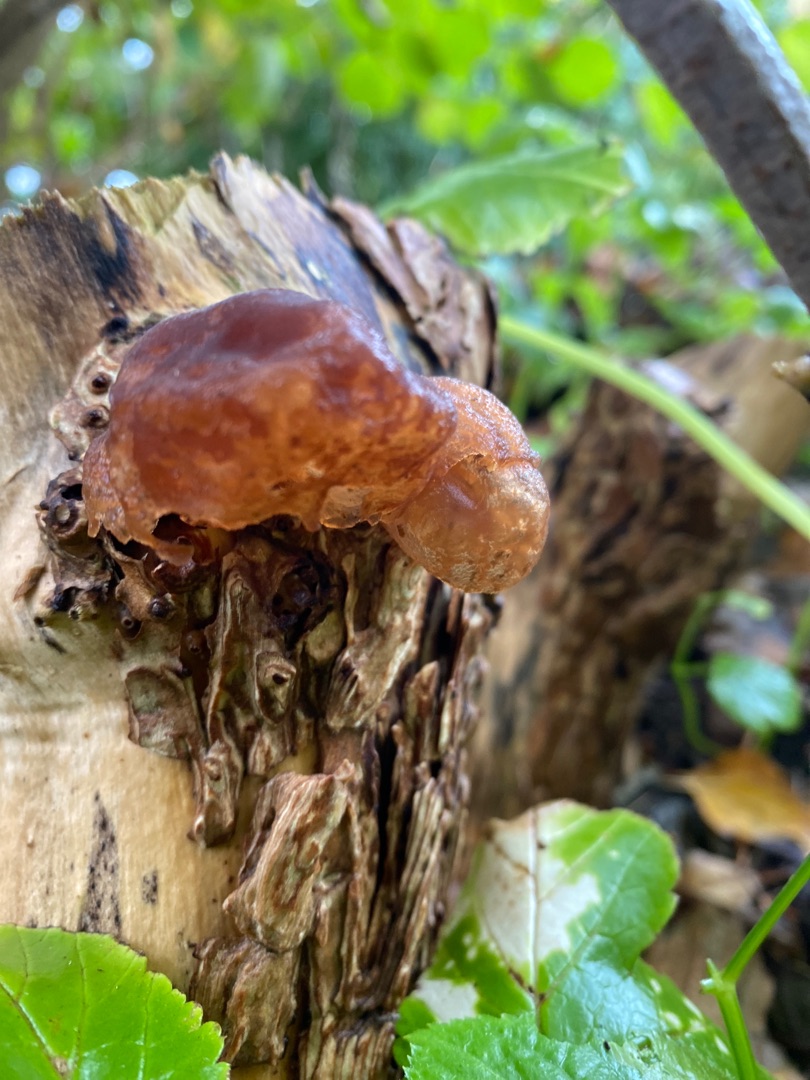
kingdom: Fungi
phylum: Basidiomycota
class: Agaricomycetes
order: Auriculariales
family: Auriculariaceae
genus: Auricularia
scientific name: Auricularia auricula-judae
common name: Almindelig judasøre
